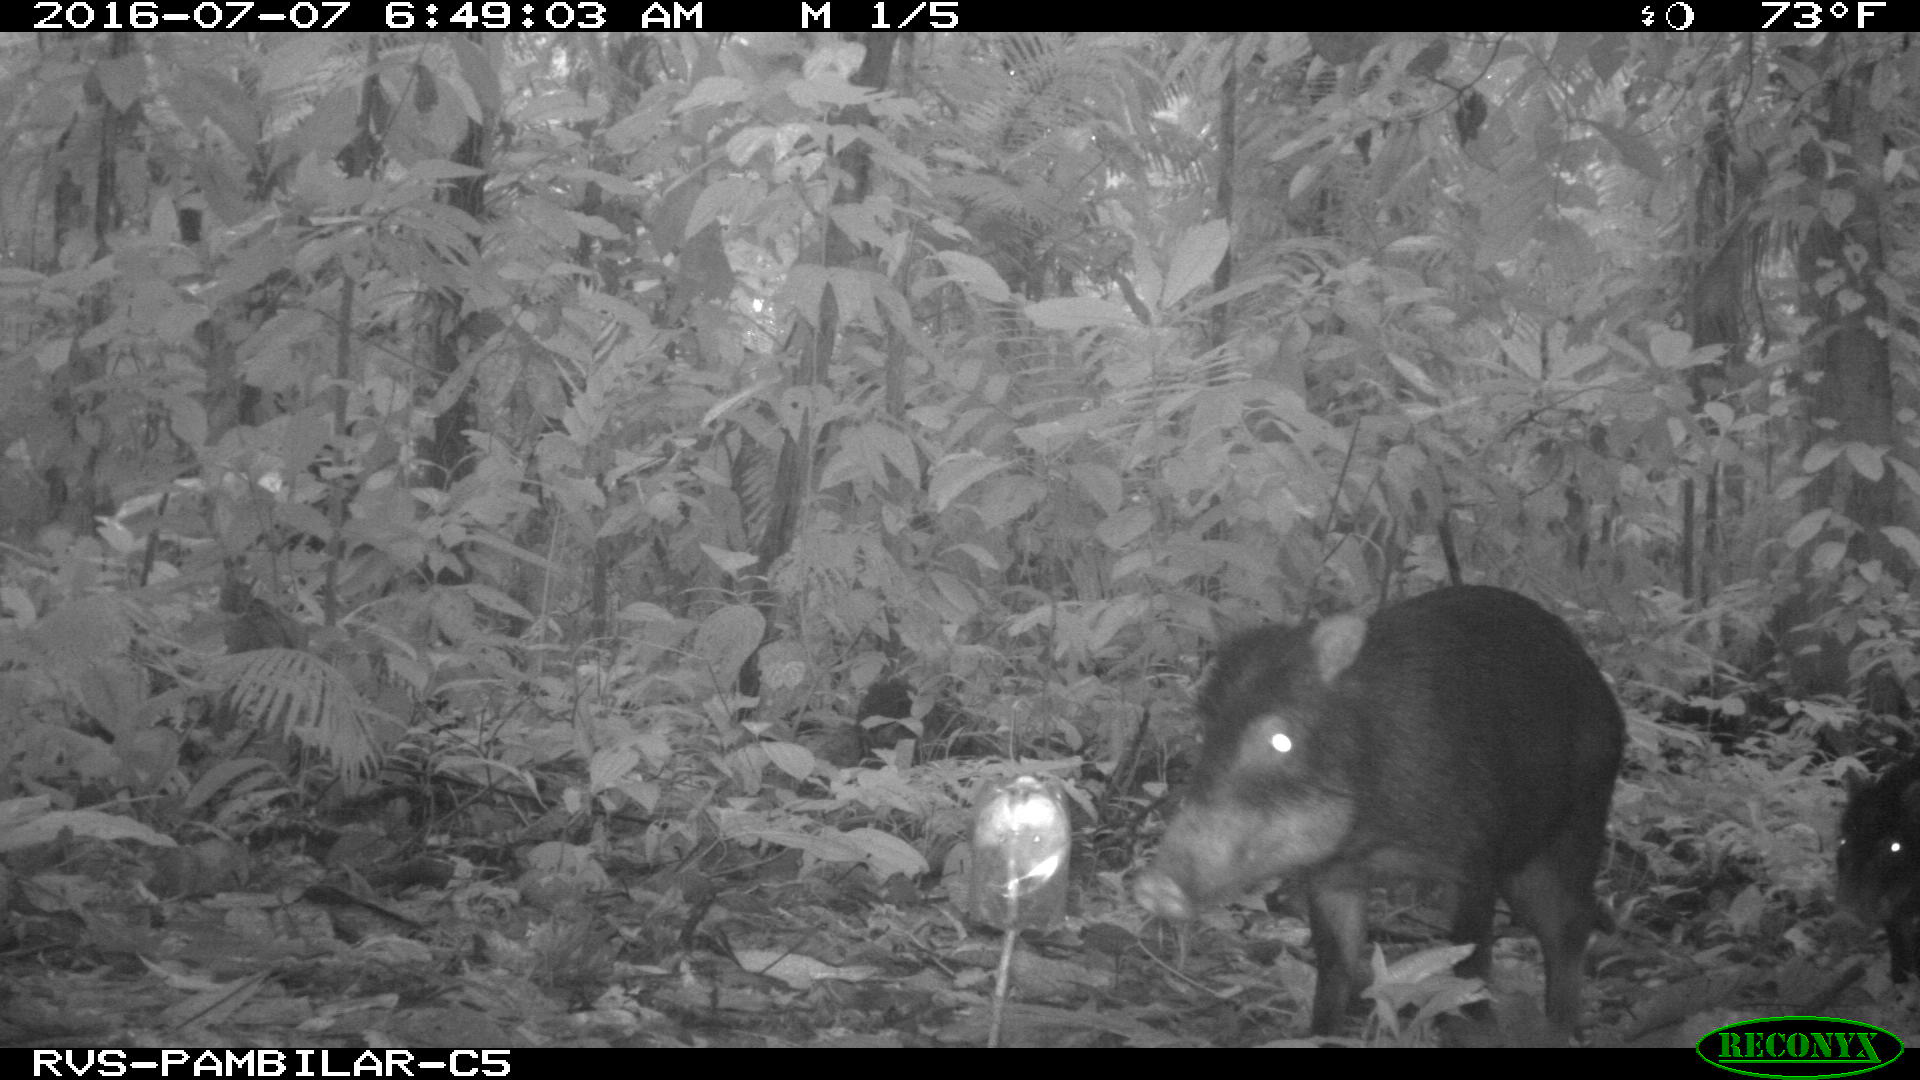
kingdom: Animalia
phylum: Chordata
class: Mammalia
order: Artiodactyla
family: Tayassuidae
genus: Tayassu
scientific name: Tayassu pecari
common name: White-lipped peccary
